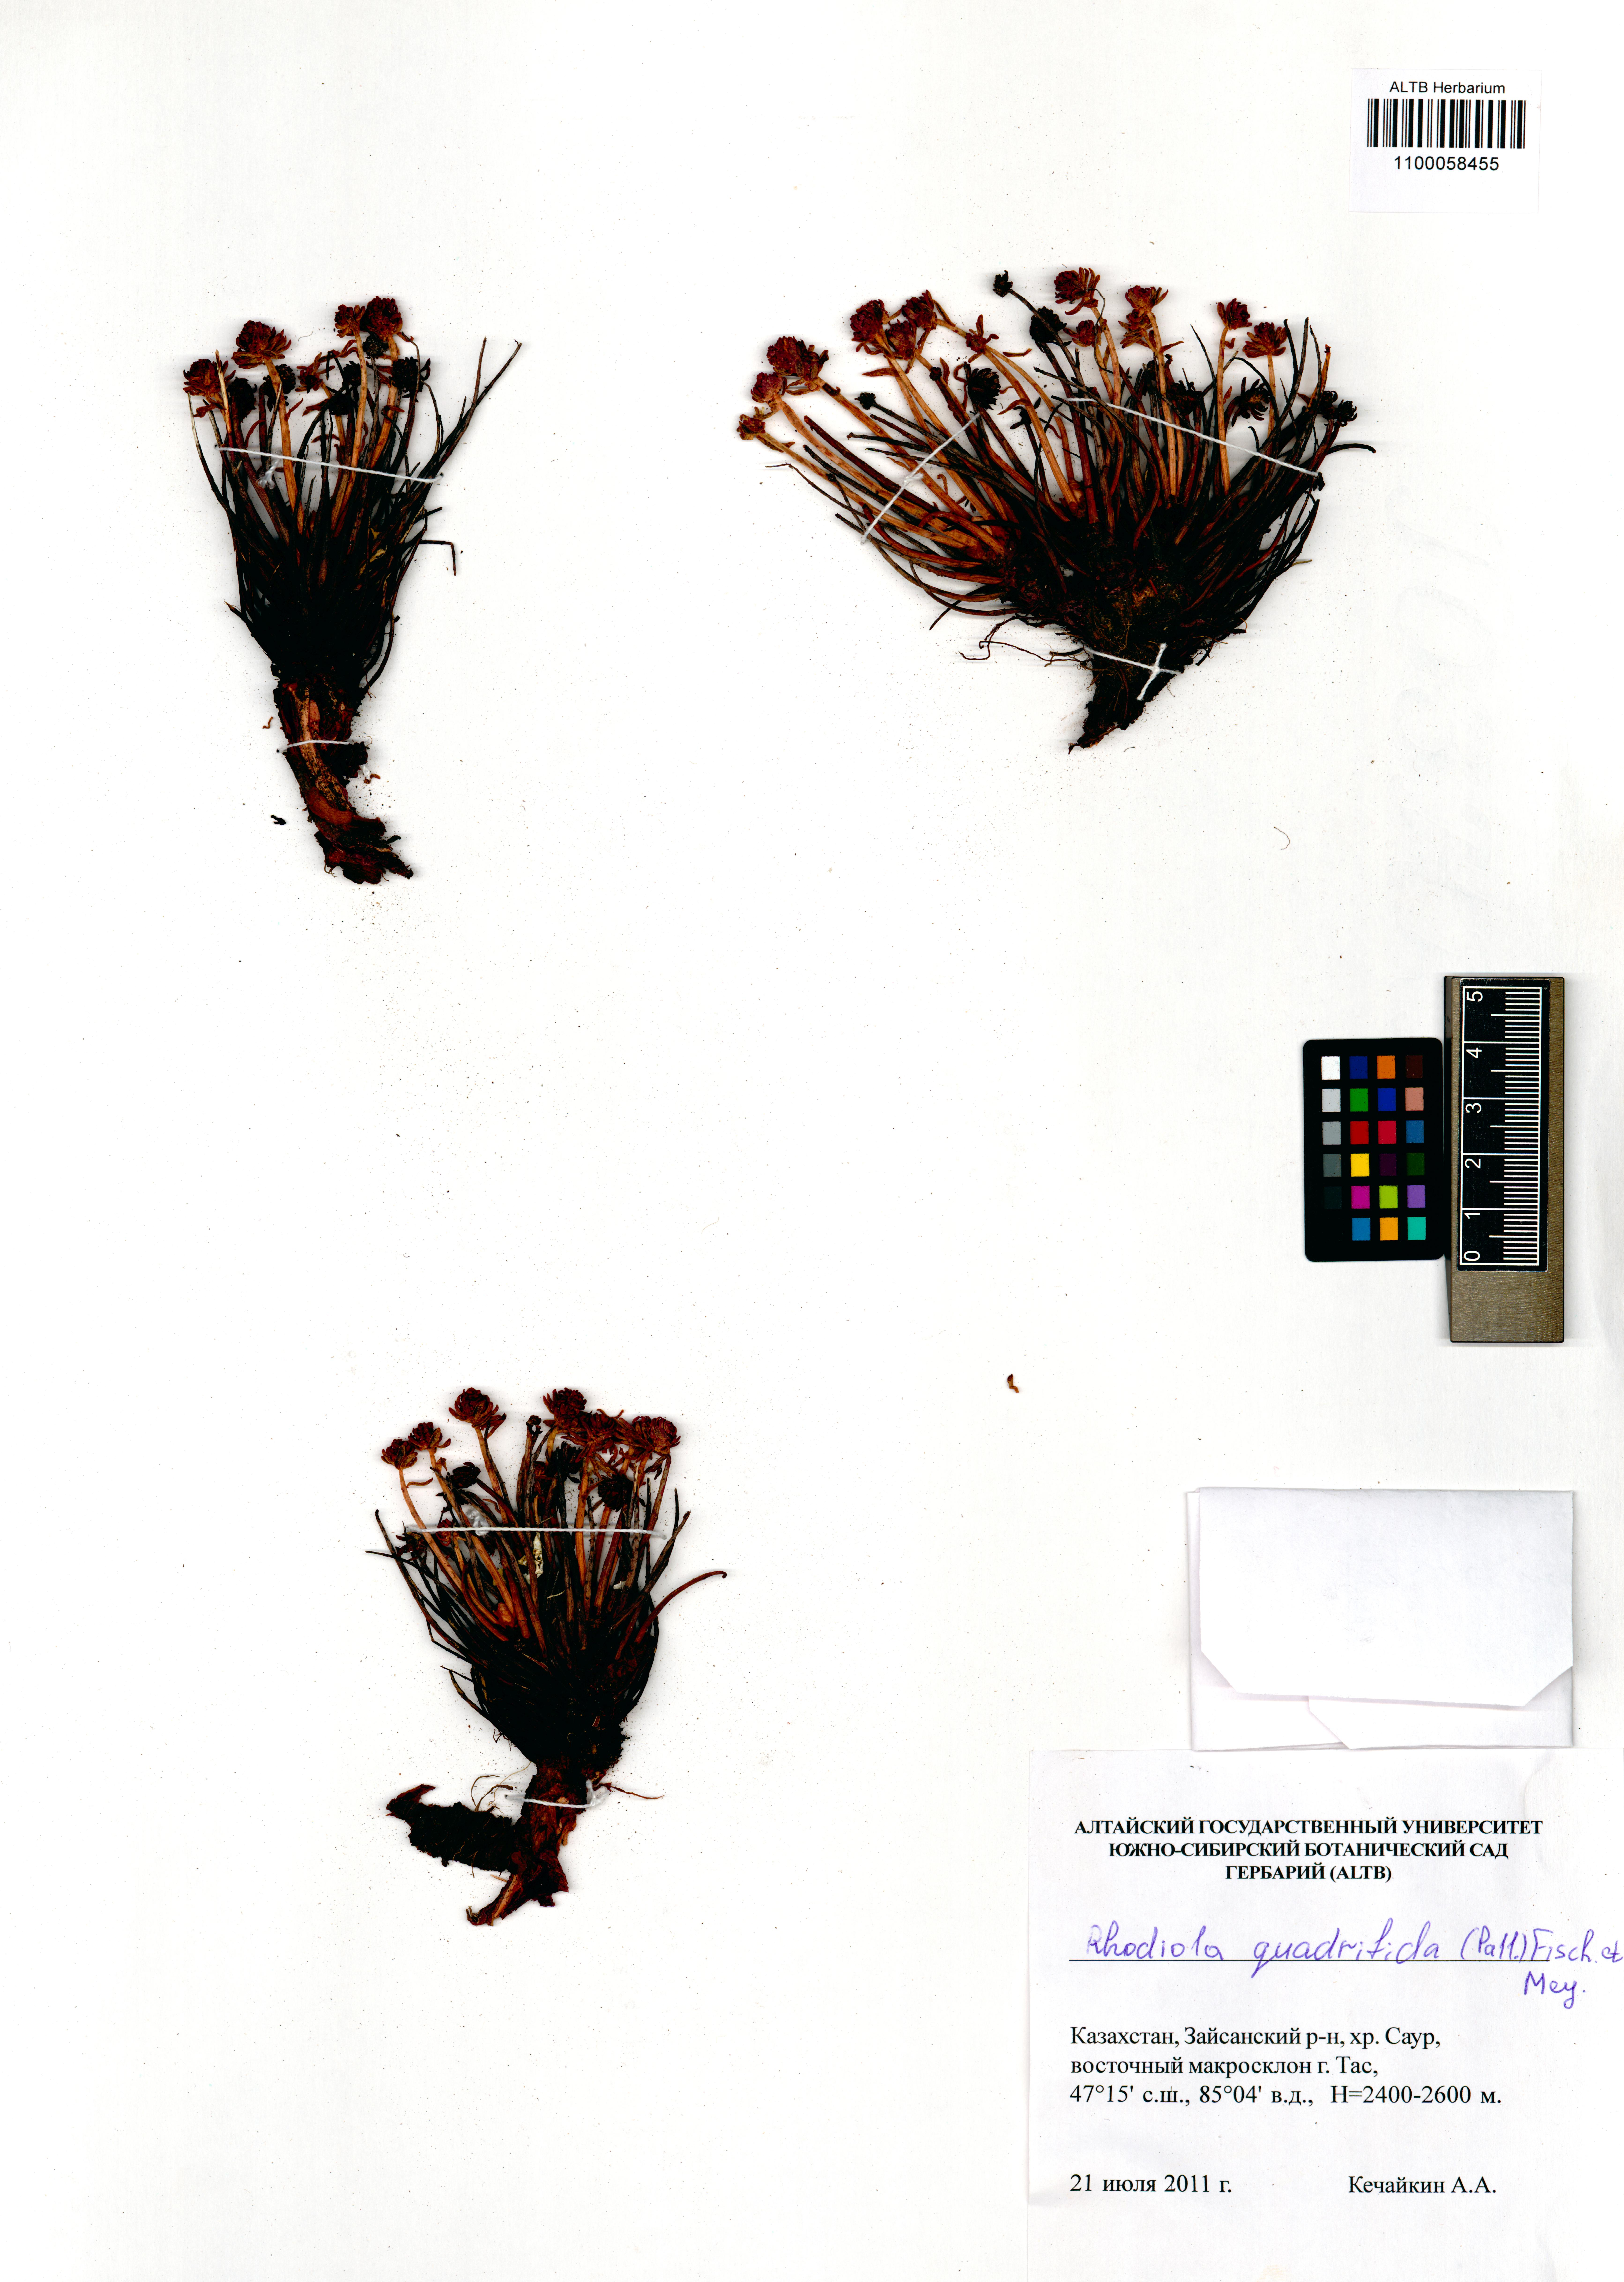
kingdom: Plantae
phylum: Tracheophyta
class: Magnoliopsida
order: Saxifragales
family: Crassulaceae
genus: Rhodiola
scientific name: Rhodiola quadrifida
